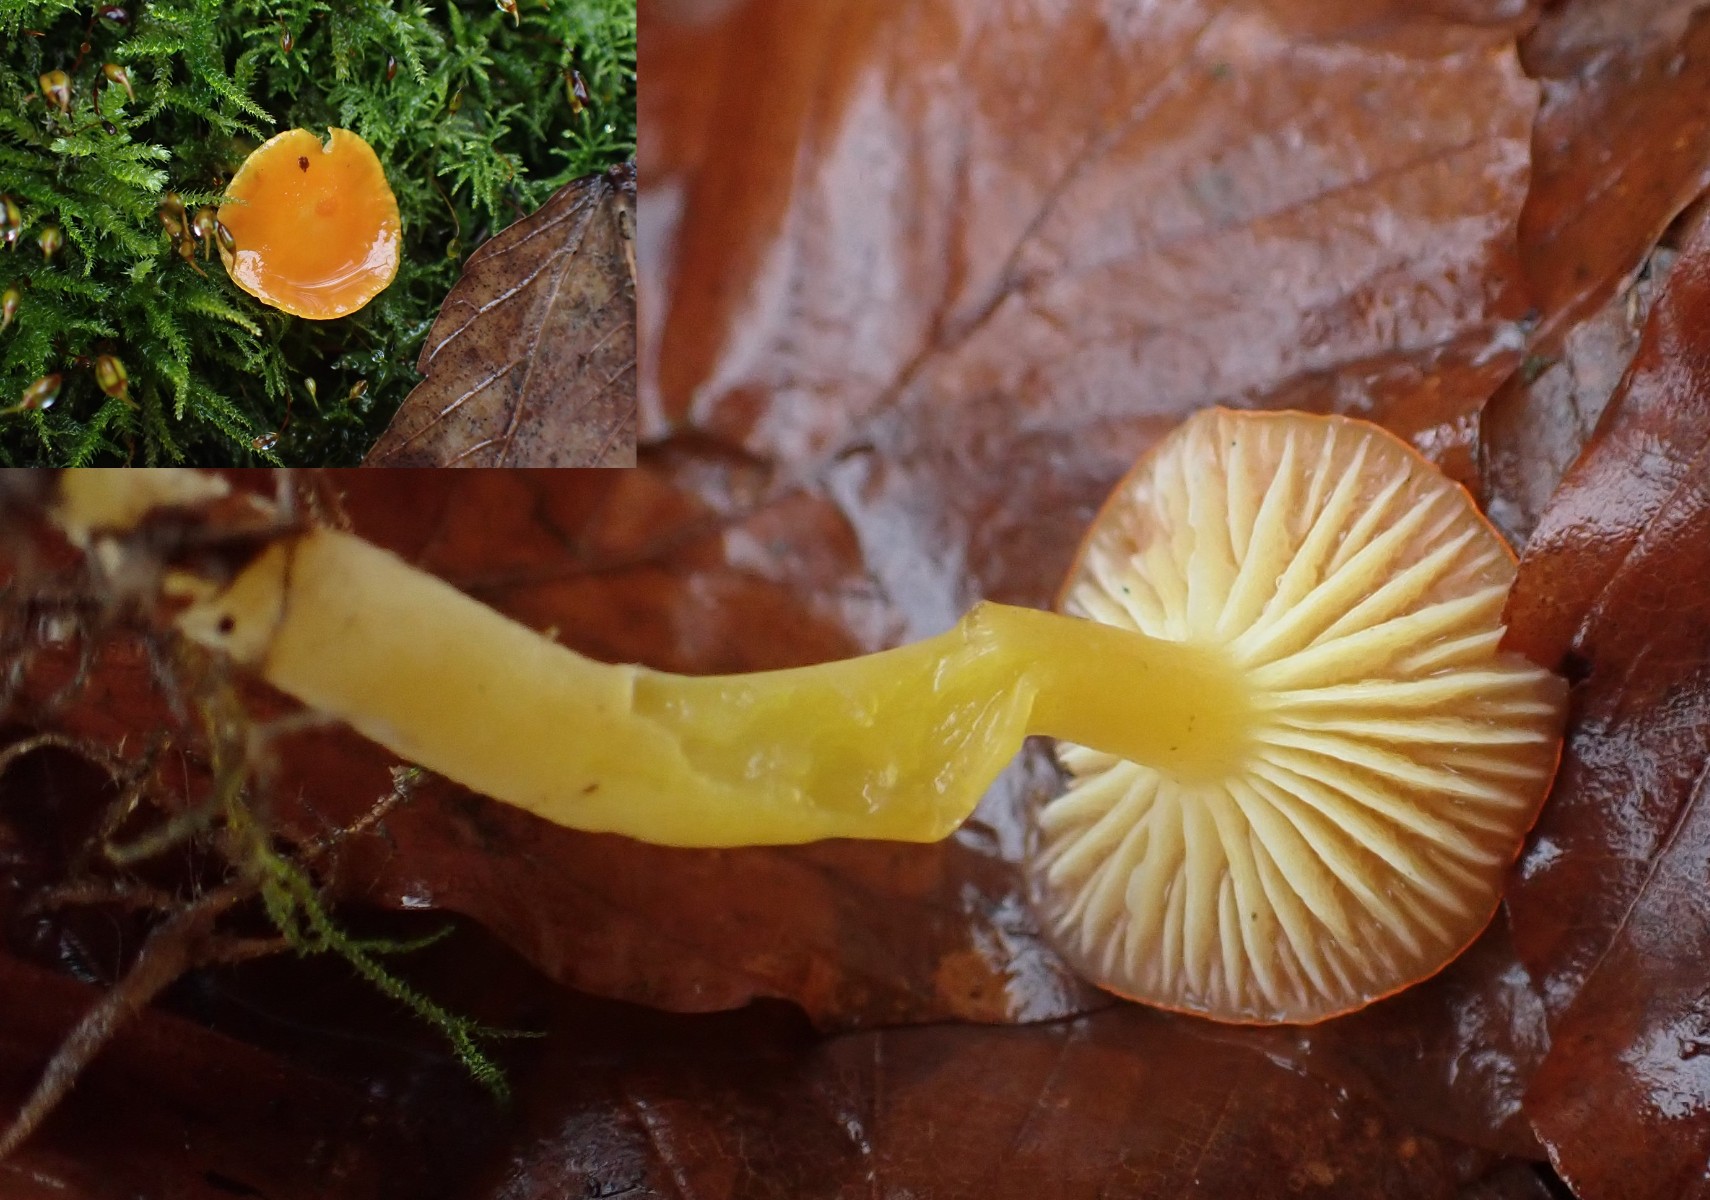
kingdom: Fungi
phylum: Basidiomycota
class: Agaricomycetes
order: Agaricales
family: Hygrophoraceae
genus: Hygrocybe
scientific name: Hygrocybe ceracea
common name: voksgul vokshat
